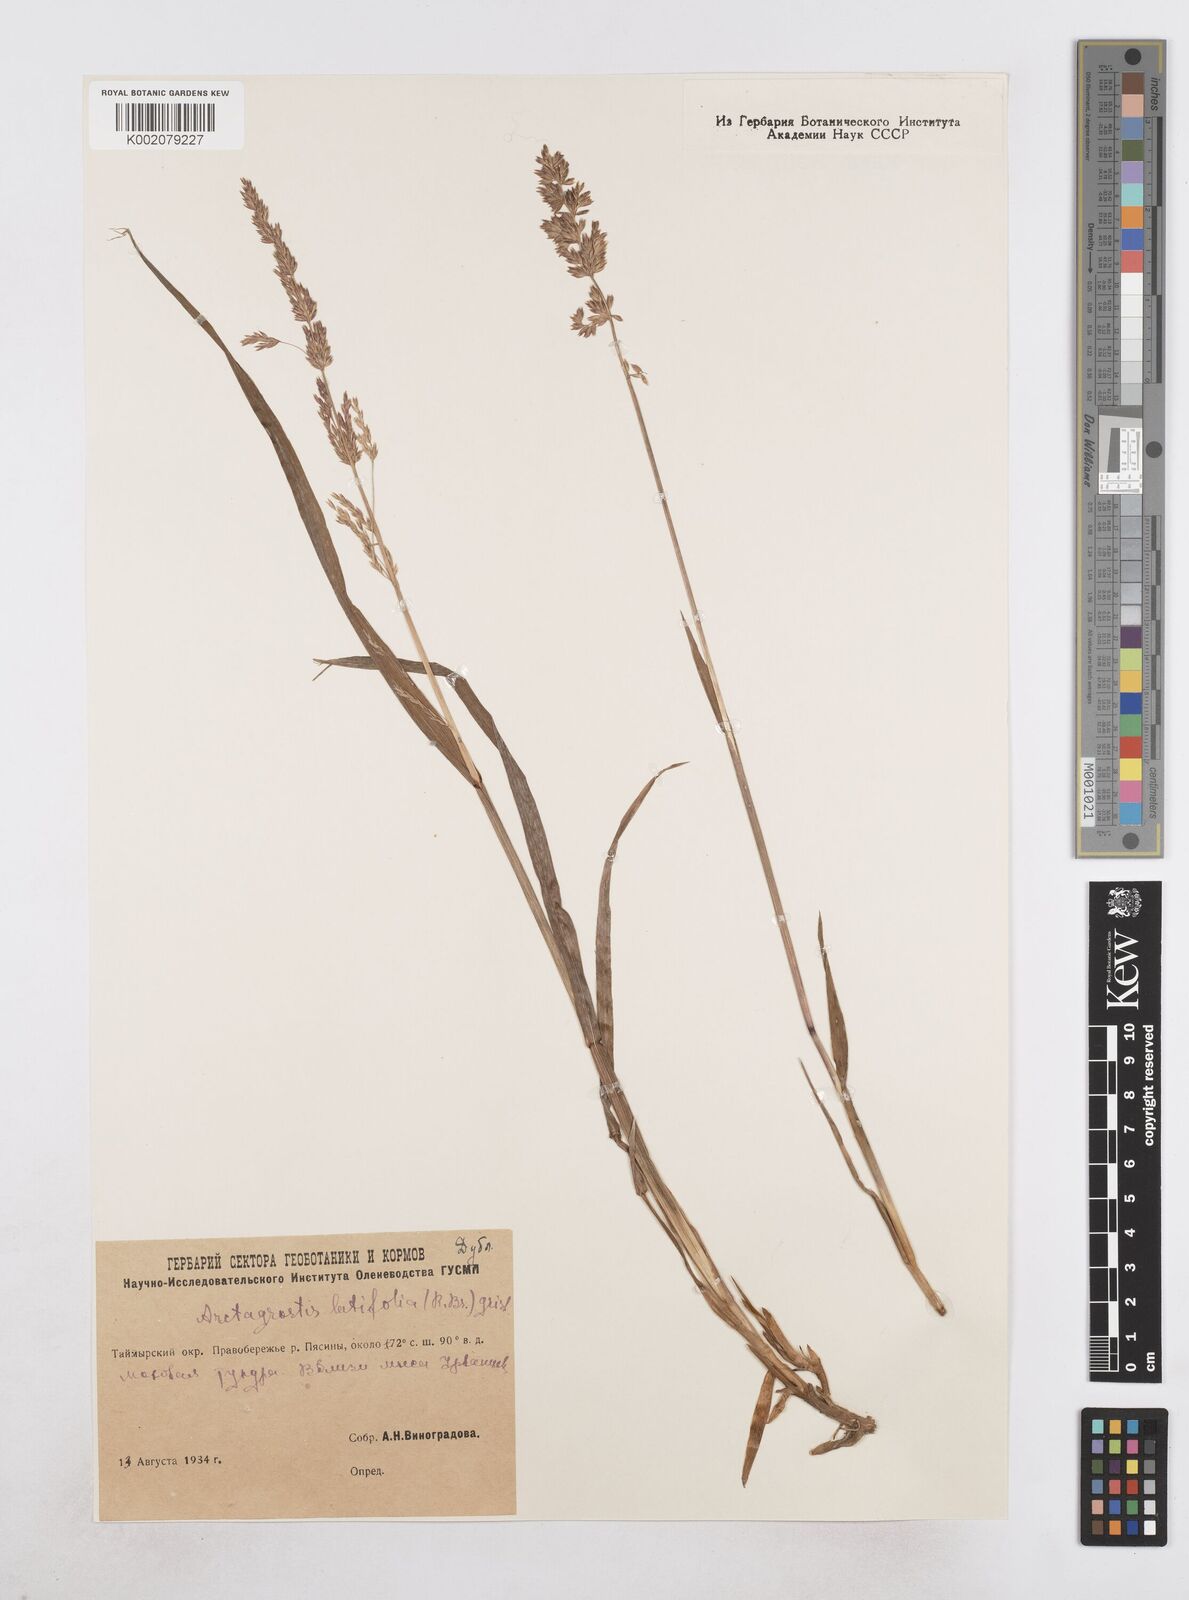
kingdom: Plantae
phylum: Tracheophyta
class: Liliopsida
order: Poales
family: Poaceae
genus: Arctagrostis
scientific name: Arctagrostis latifolia
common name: Arctic grass
